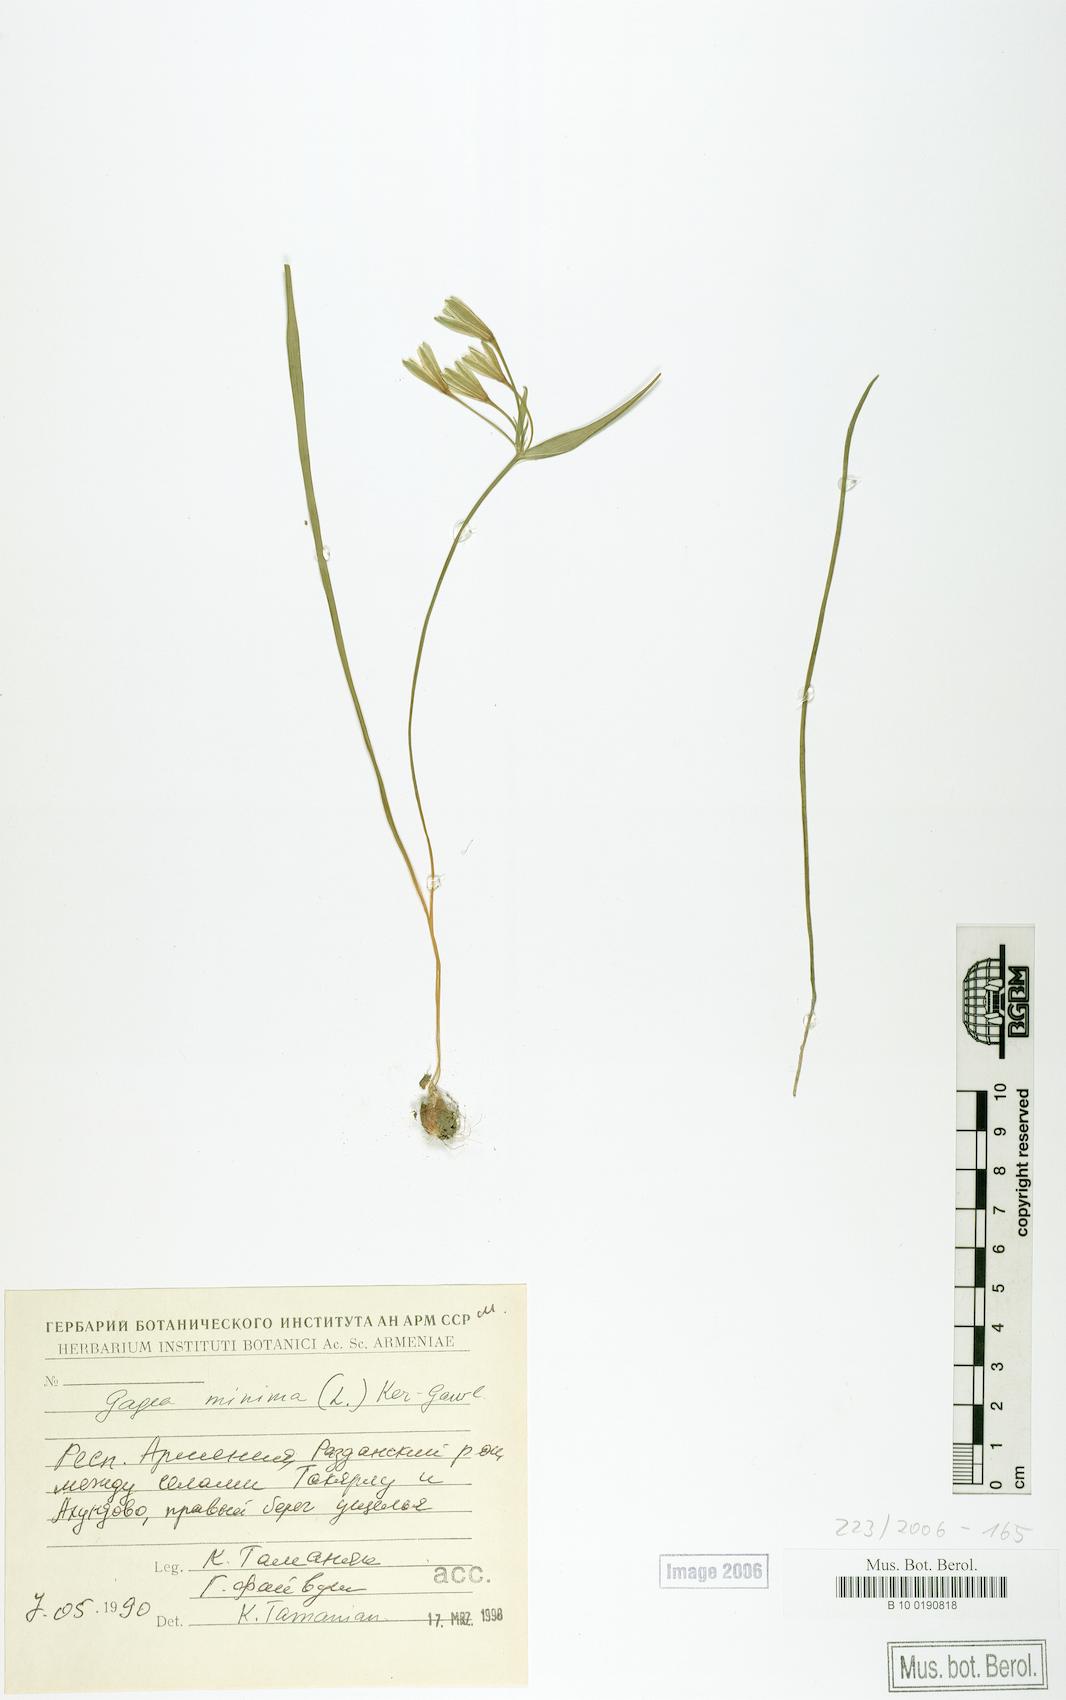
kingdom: Plantae
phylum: Tracheophyta
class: Liliopsida
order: Liliales
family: Liliaceae
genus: Gagea
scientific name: Gagea minima
